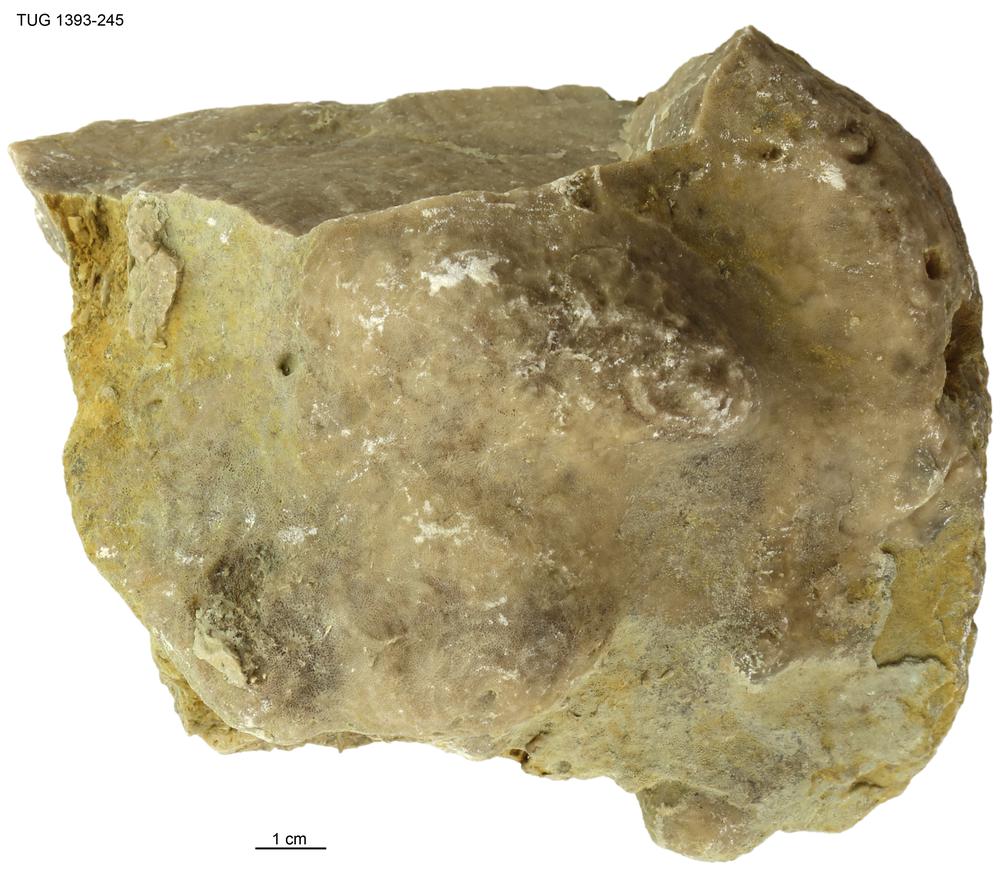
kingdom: Animalia
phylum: Bryozoa
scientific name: Bryozoa
